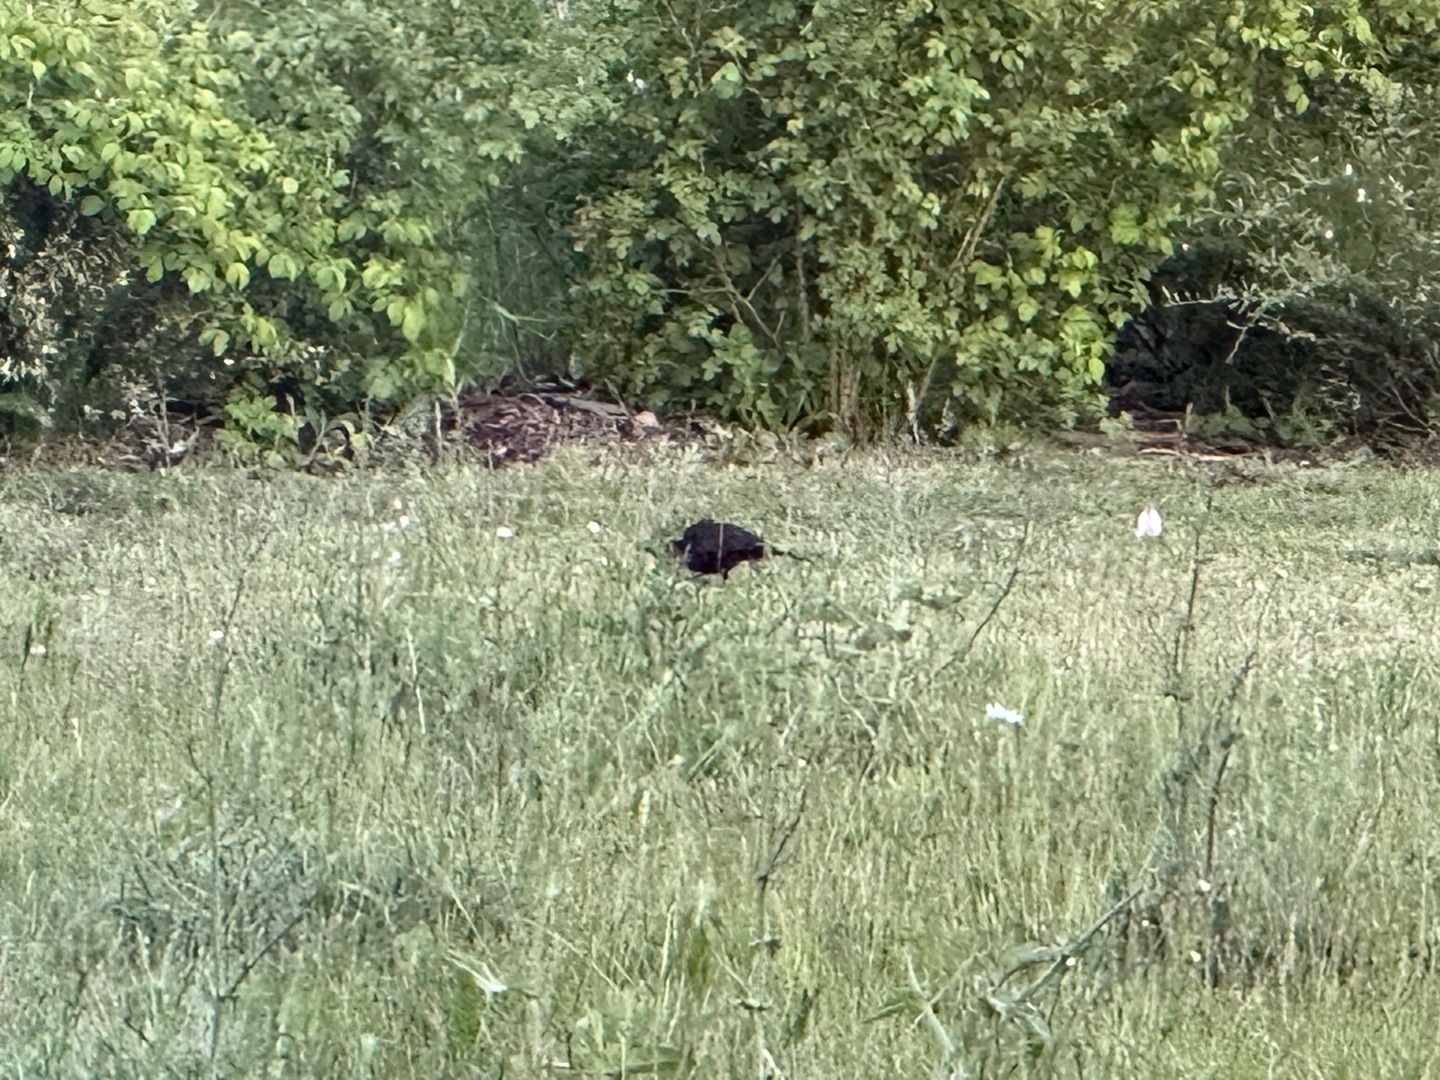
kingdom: Animalia
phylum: Chordata
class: Aves
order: Passeriformes
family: Turdidae
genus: Turdus
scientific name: Turdus merula
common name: Solsort
